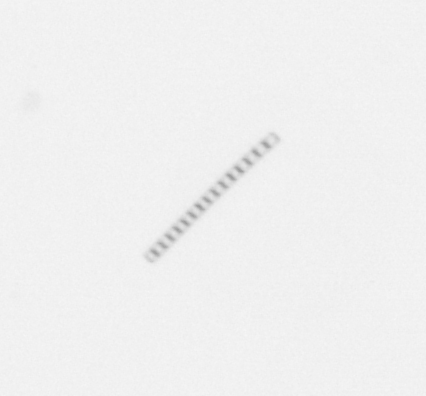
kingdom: Chromista
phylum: Ochrophyta
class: Bacillariophyceae
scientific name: Bacillariophyceae
